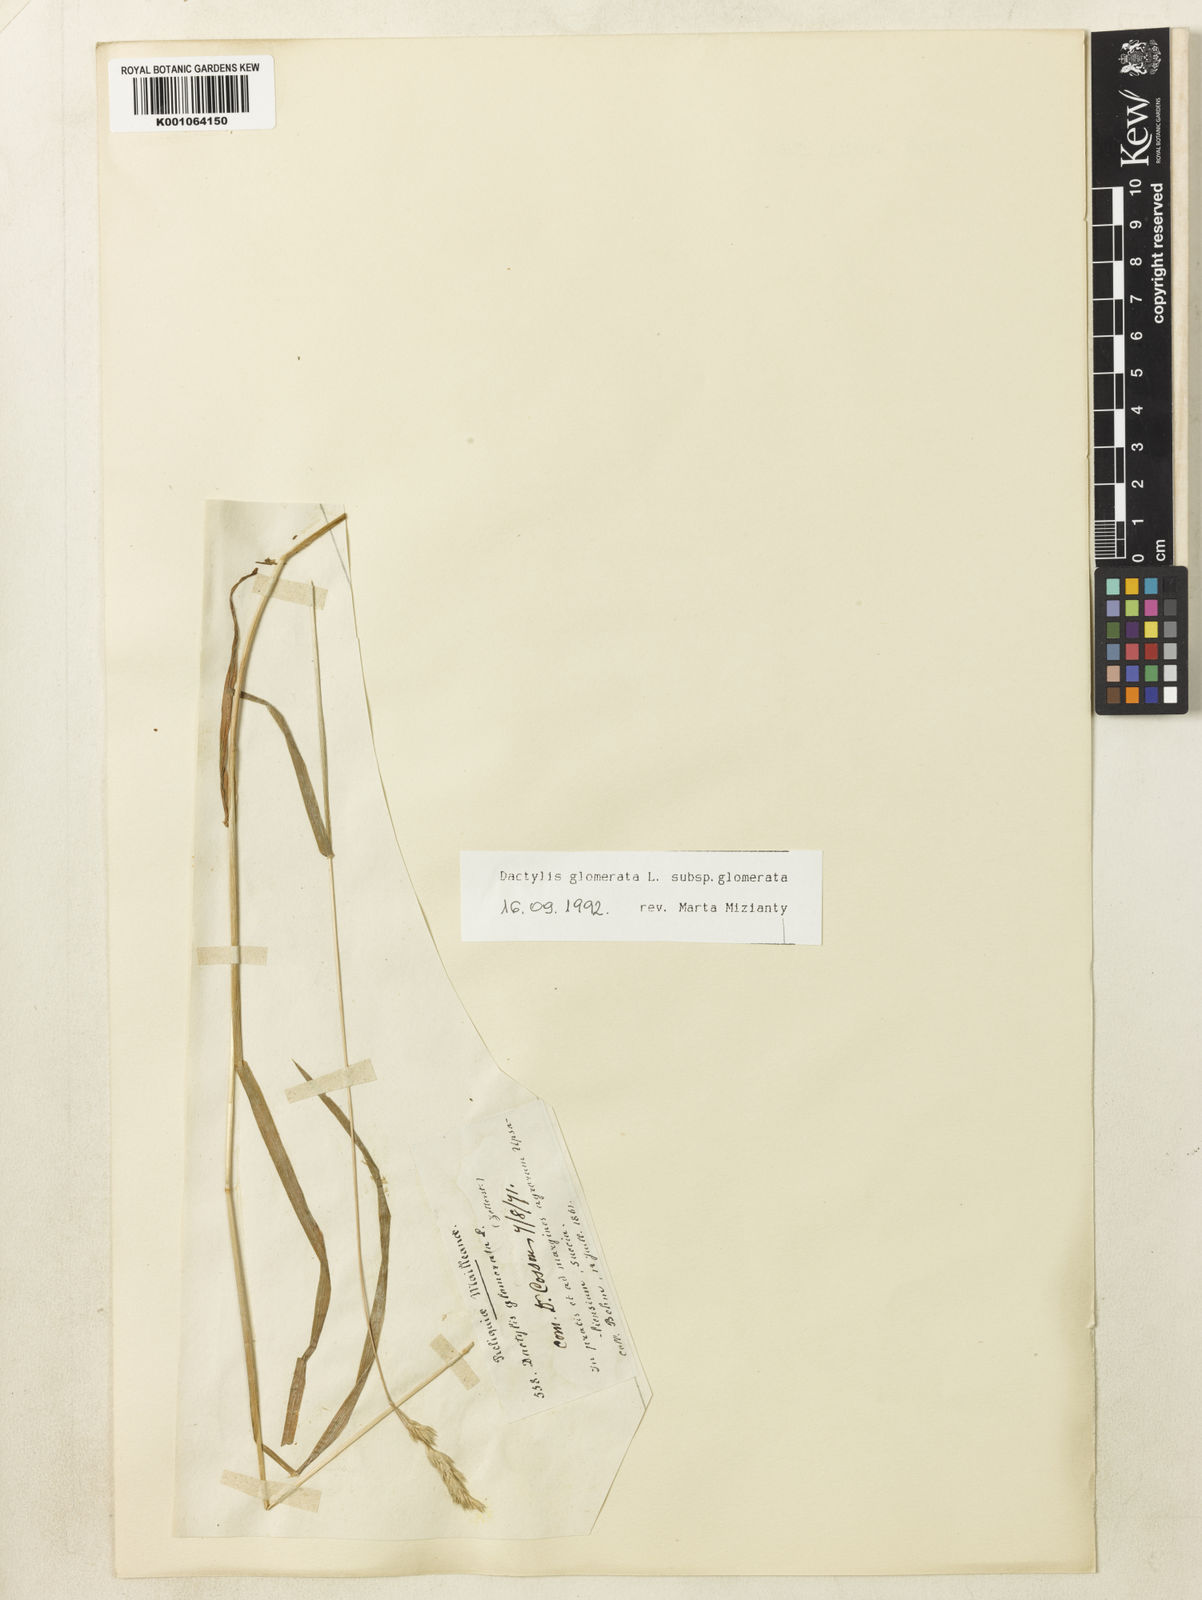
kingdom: Plantae
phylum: Tracheophyta
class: Liliopsida
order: Poales
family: Poaceae
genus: Dactylis
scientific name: Dactylis glomerata
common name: Orchardgrass
